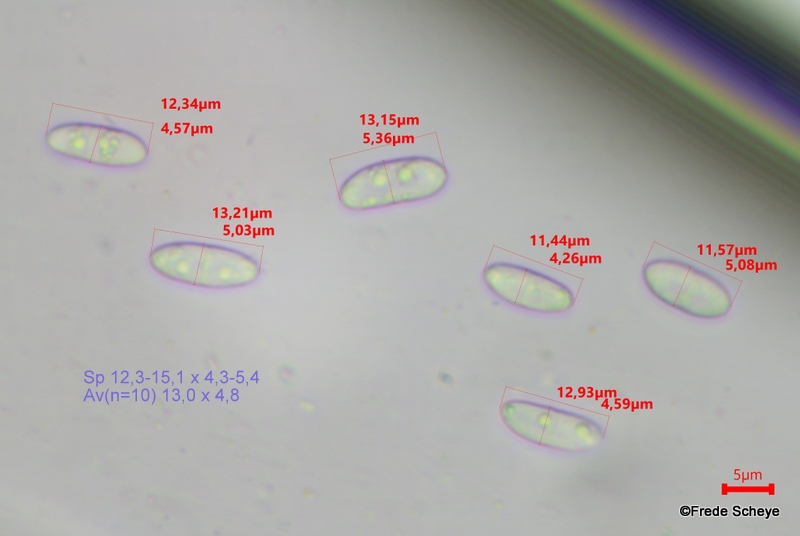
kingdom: Fungi
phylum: Ascomycota
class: Leotiomycetes
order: Helotiales
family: Pezizellaceae
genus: Calycina
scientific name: Calycina citrina
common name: almindelig gulskive
